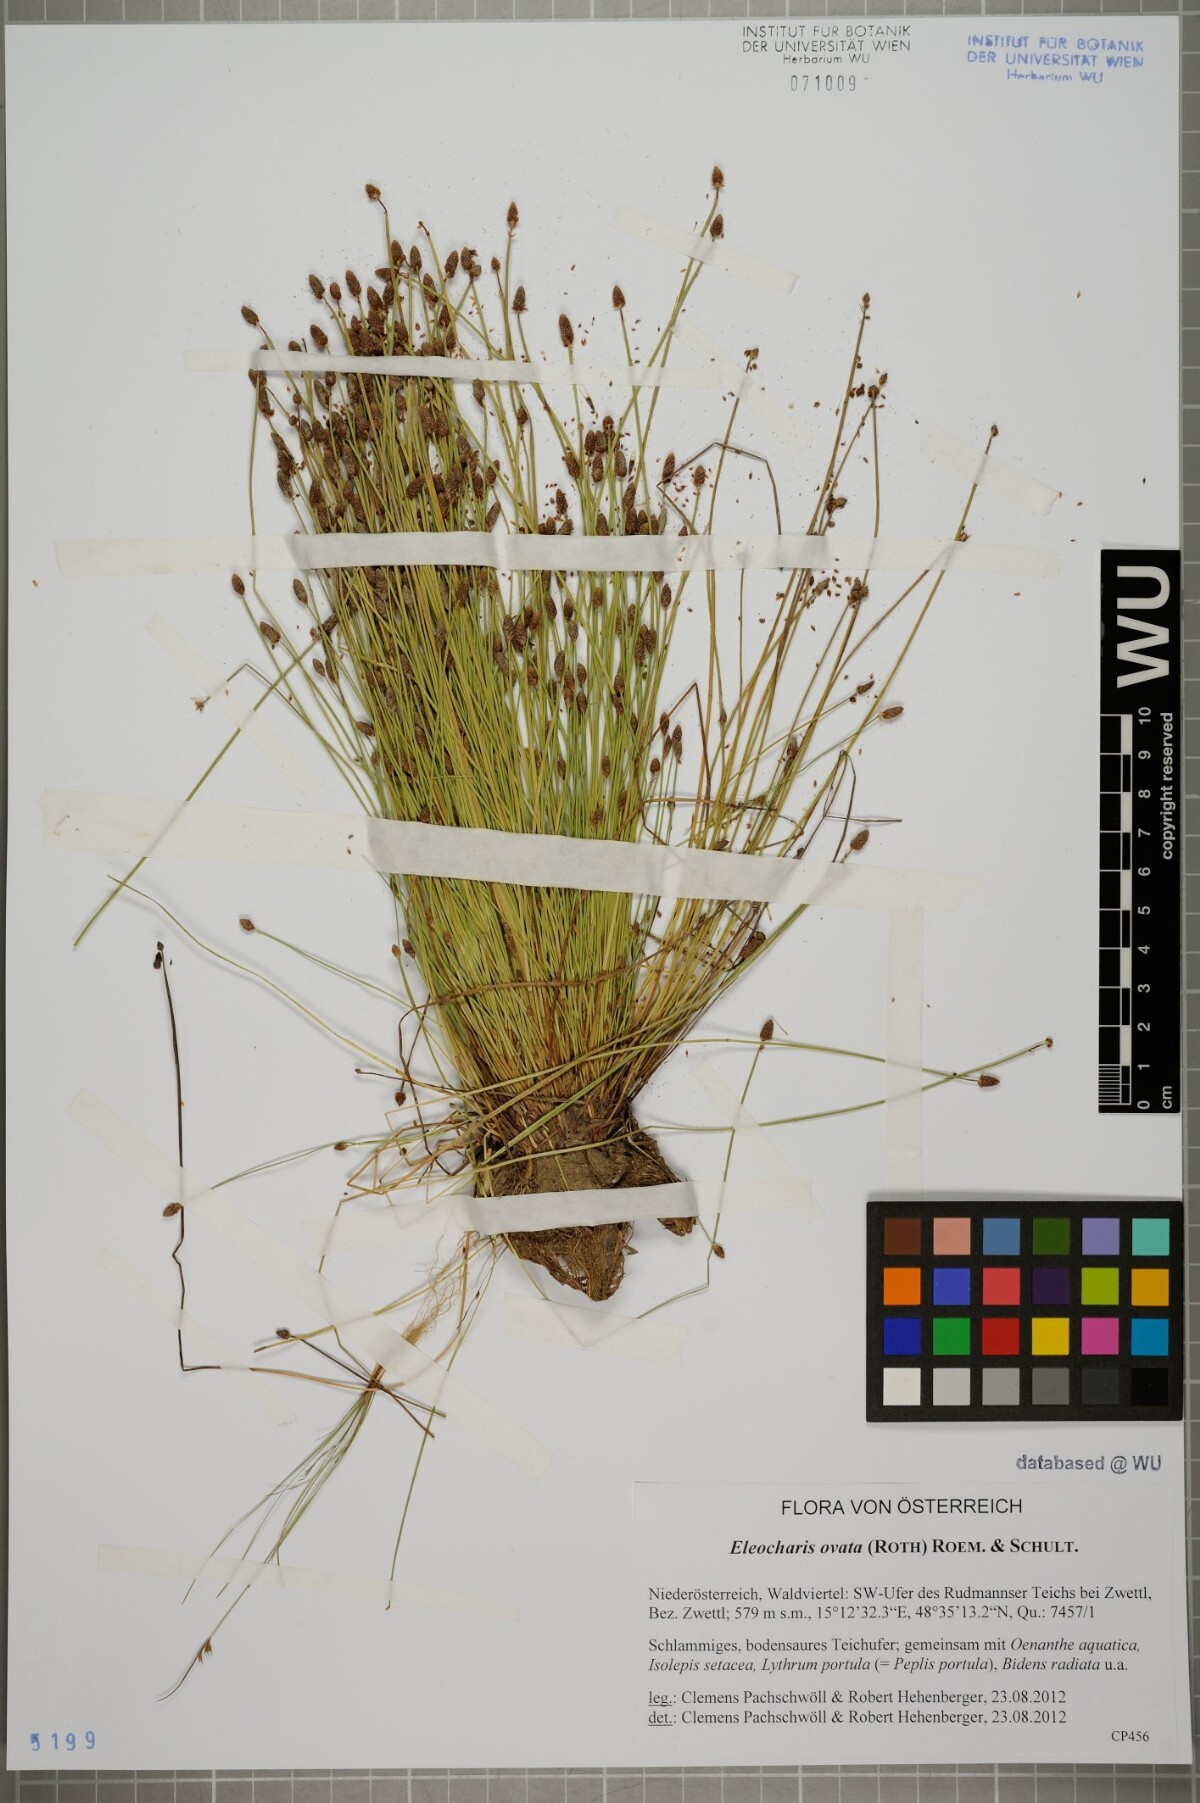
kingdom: Plantae
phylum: Tracheophyta
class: Liliopsida
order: Poales
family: Cyperaceae
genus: Eleocharis
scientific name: Eleocharis ovata
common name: Oval spike-rush
